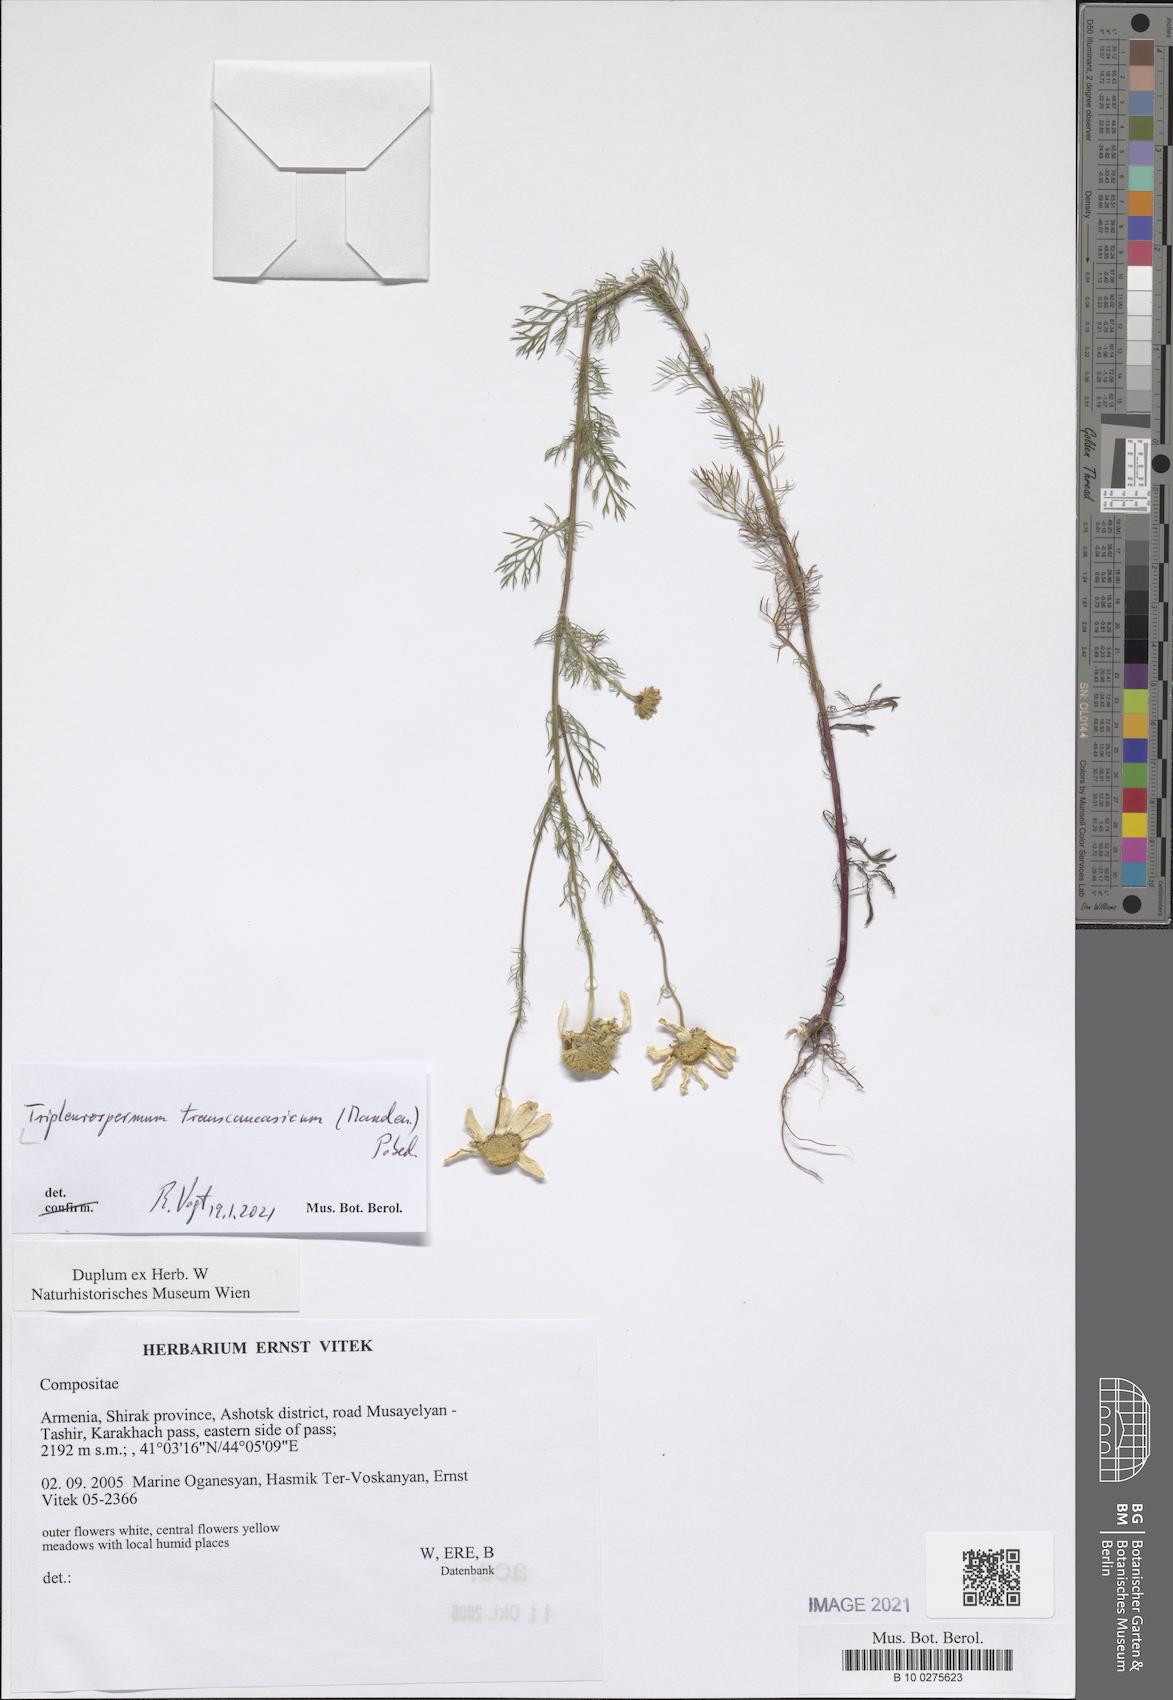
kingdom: Plantae
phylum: Tracheophyta
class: Magnoliopsida
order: Asterales
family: Asteraceae
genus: Tripleurospermum
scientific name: Tripleurospermum transcaucasicum
